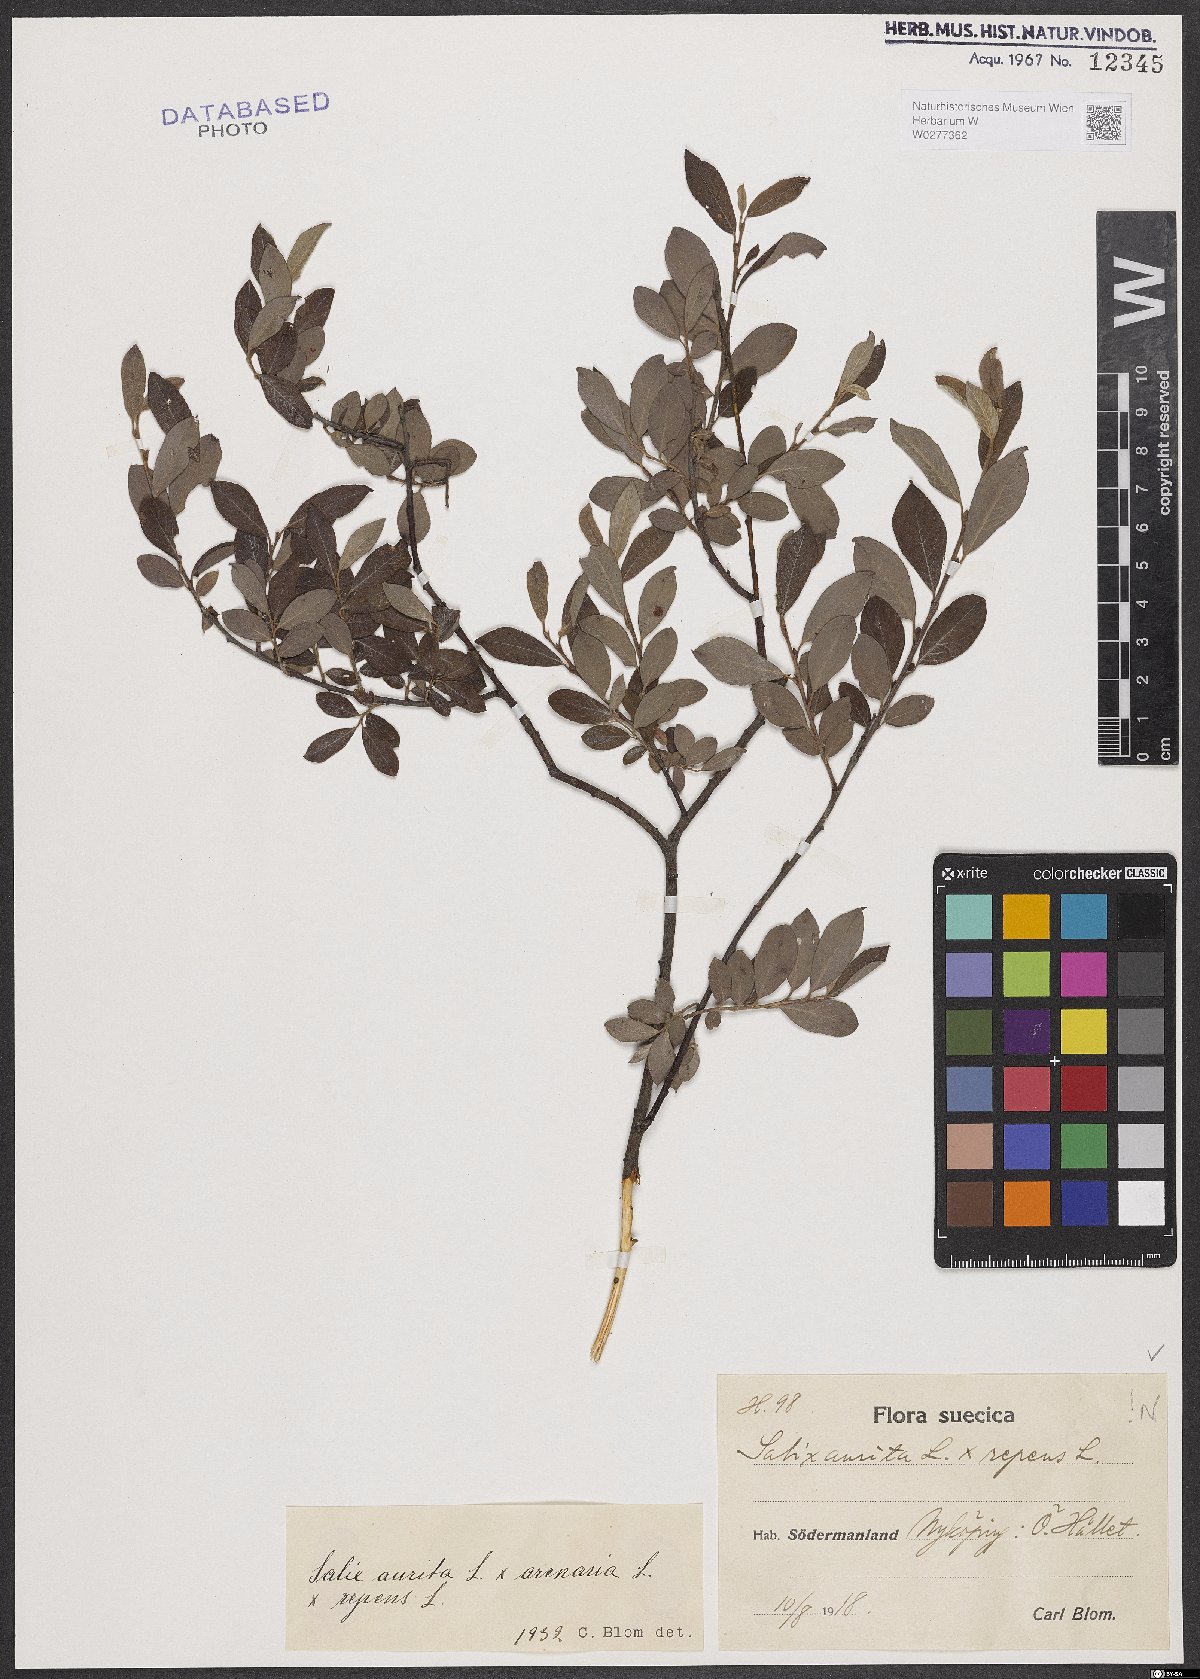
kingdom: Plantae
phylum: Tracheophyta
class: Magnoliopsida
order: Malpighiales
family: Salicaceae
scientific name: Salicaceae
